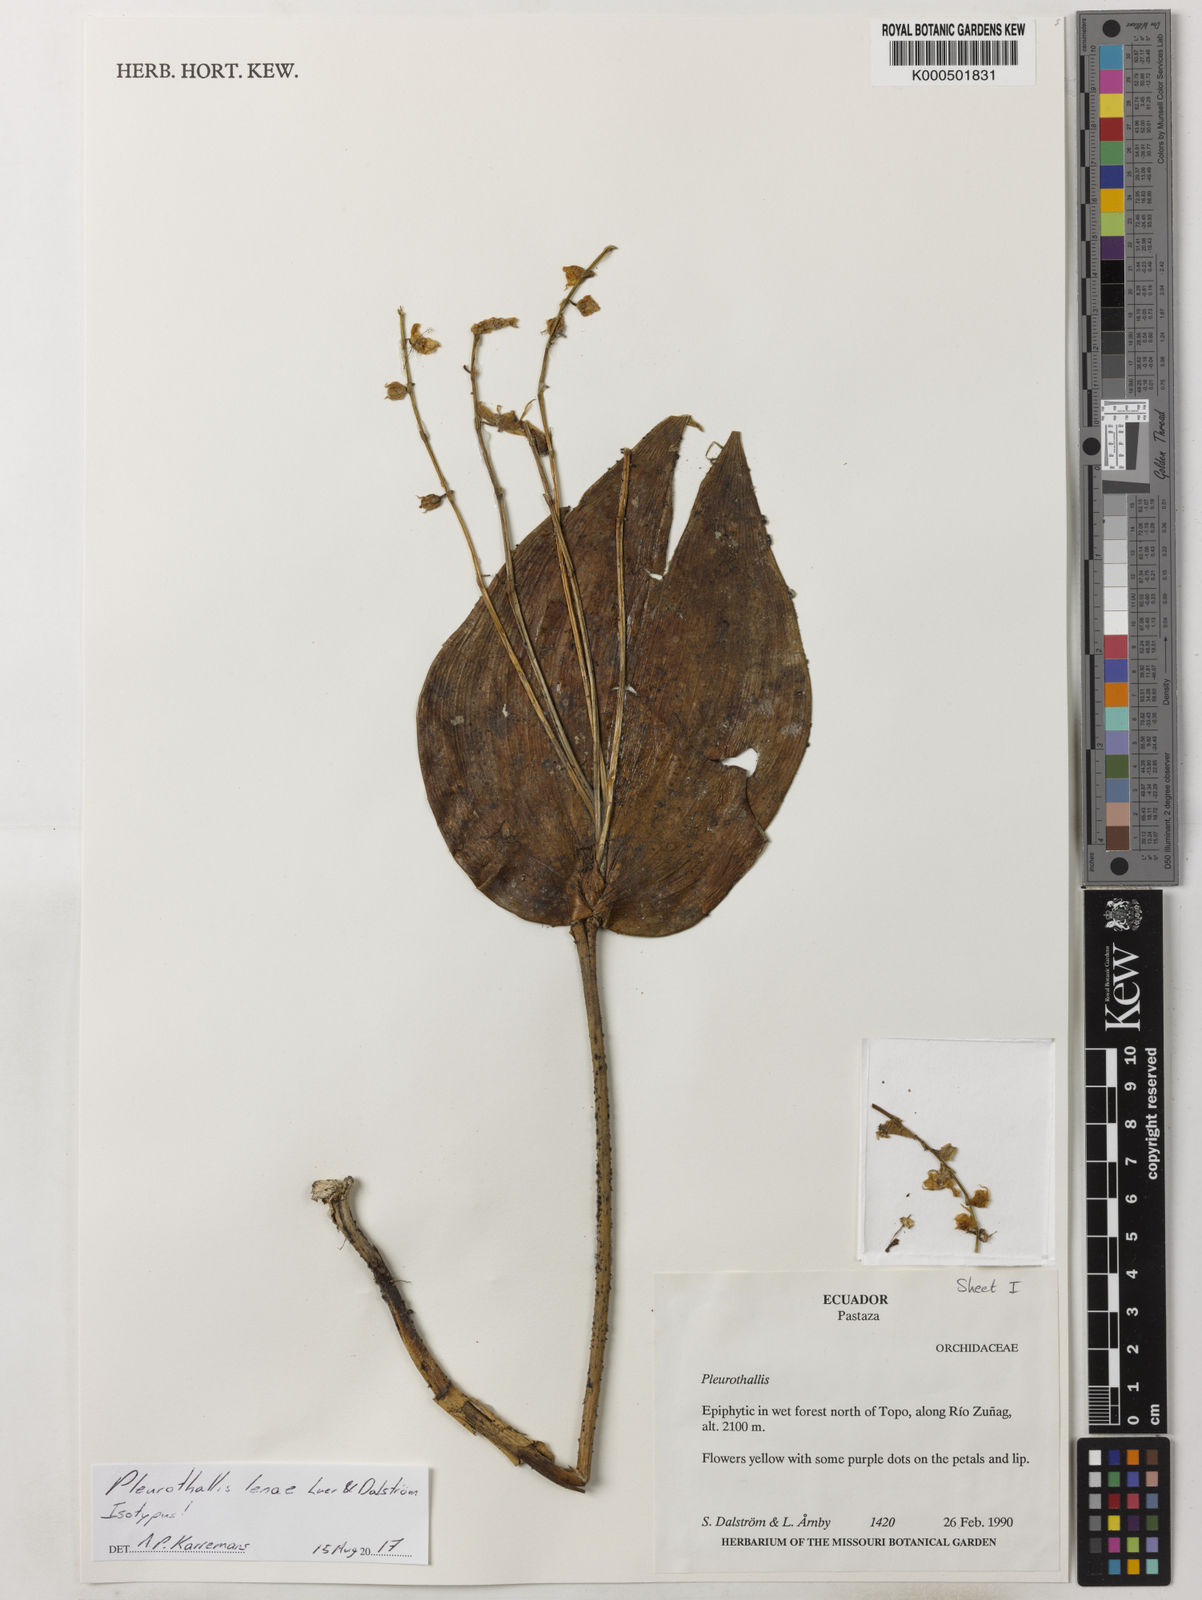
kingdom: Plantae
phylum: Tracheophyta
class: Liliopsida
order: Asparagales
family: Orchidaceae
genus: Pleurothallis
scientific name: Pleurothallis
